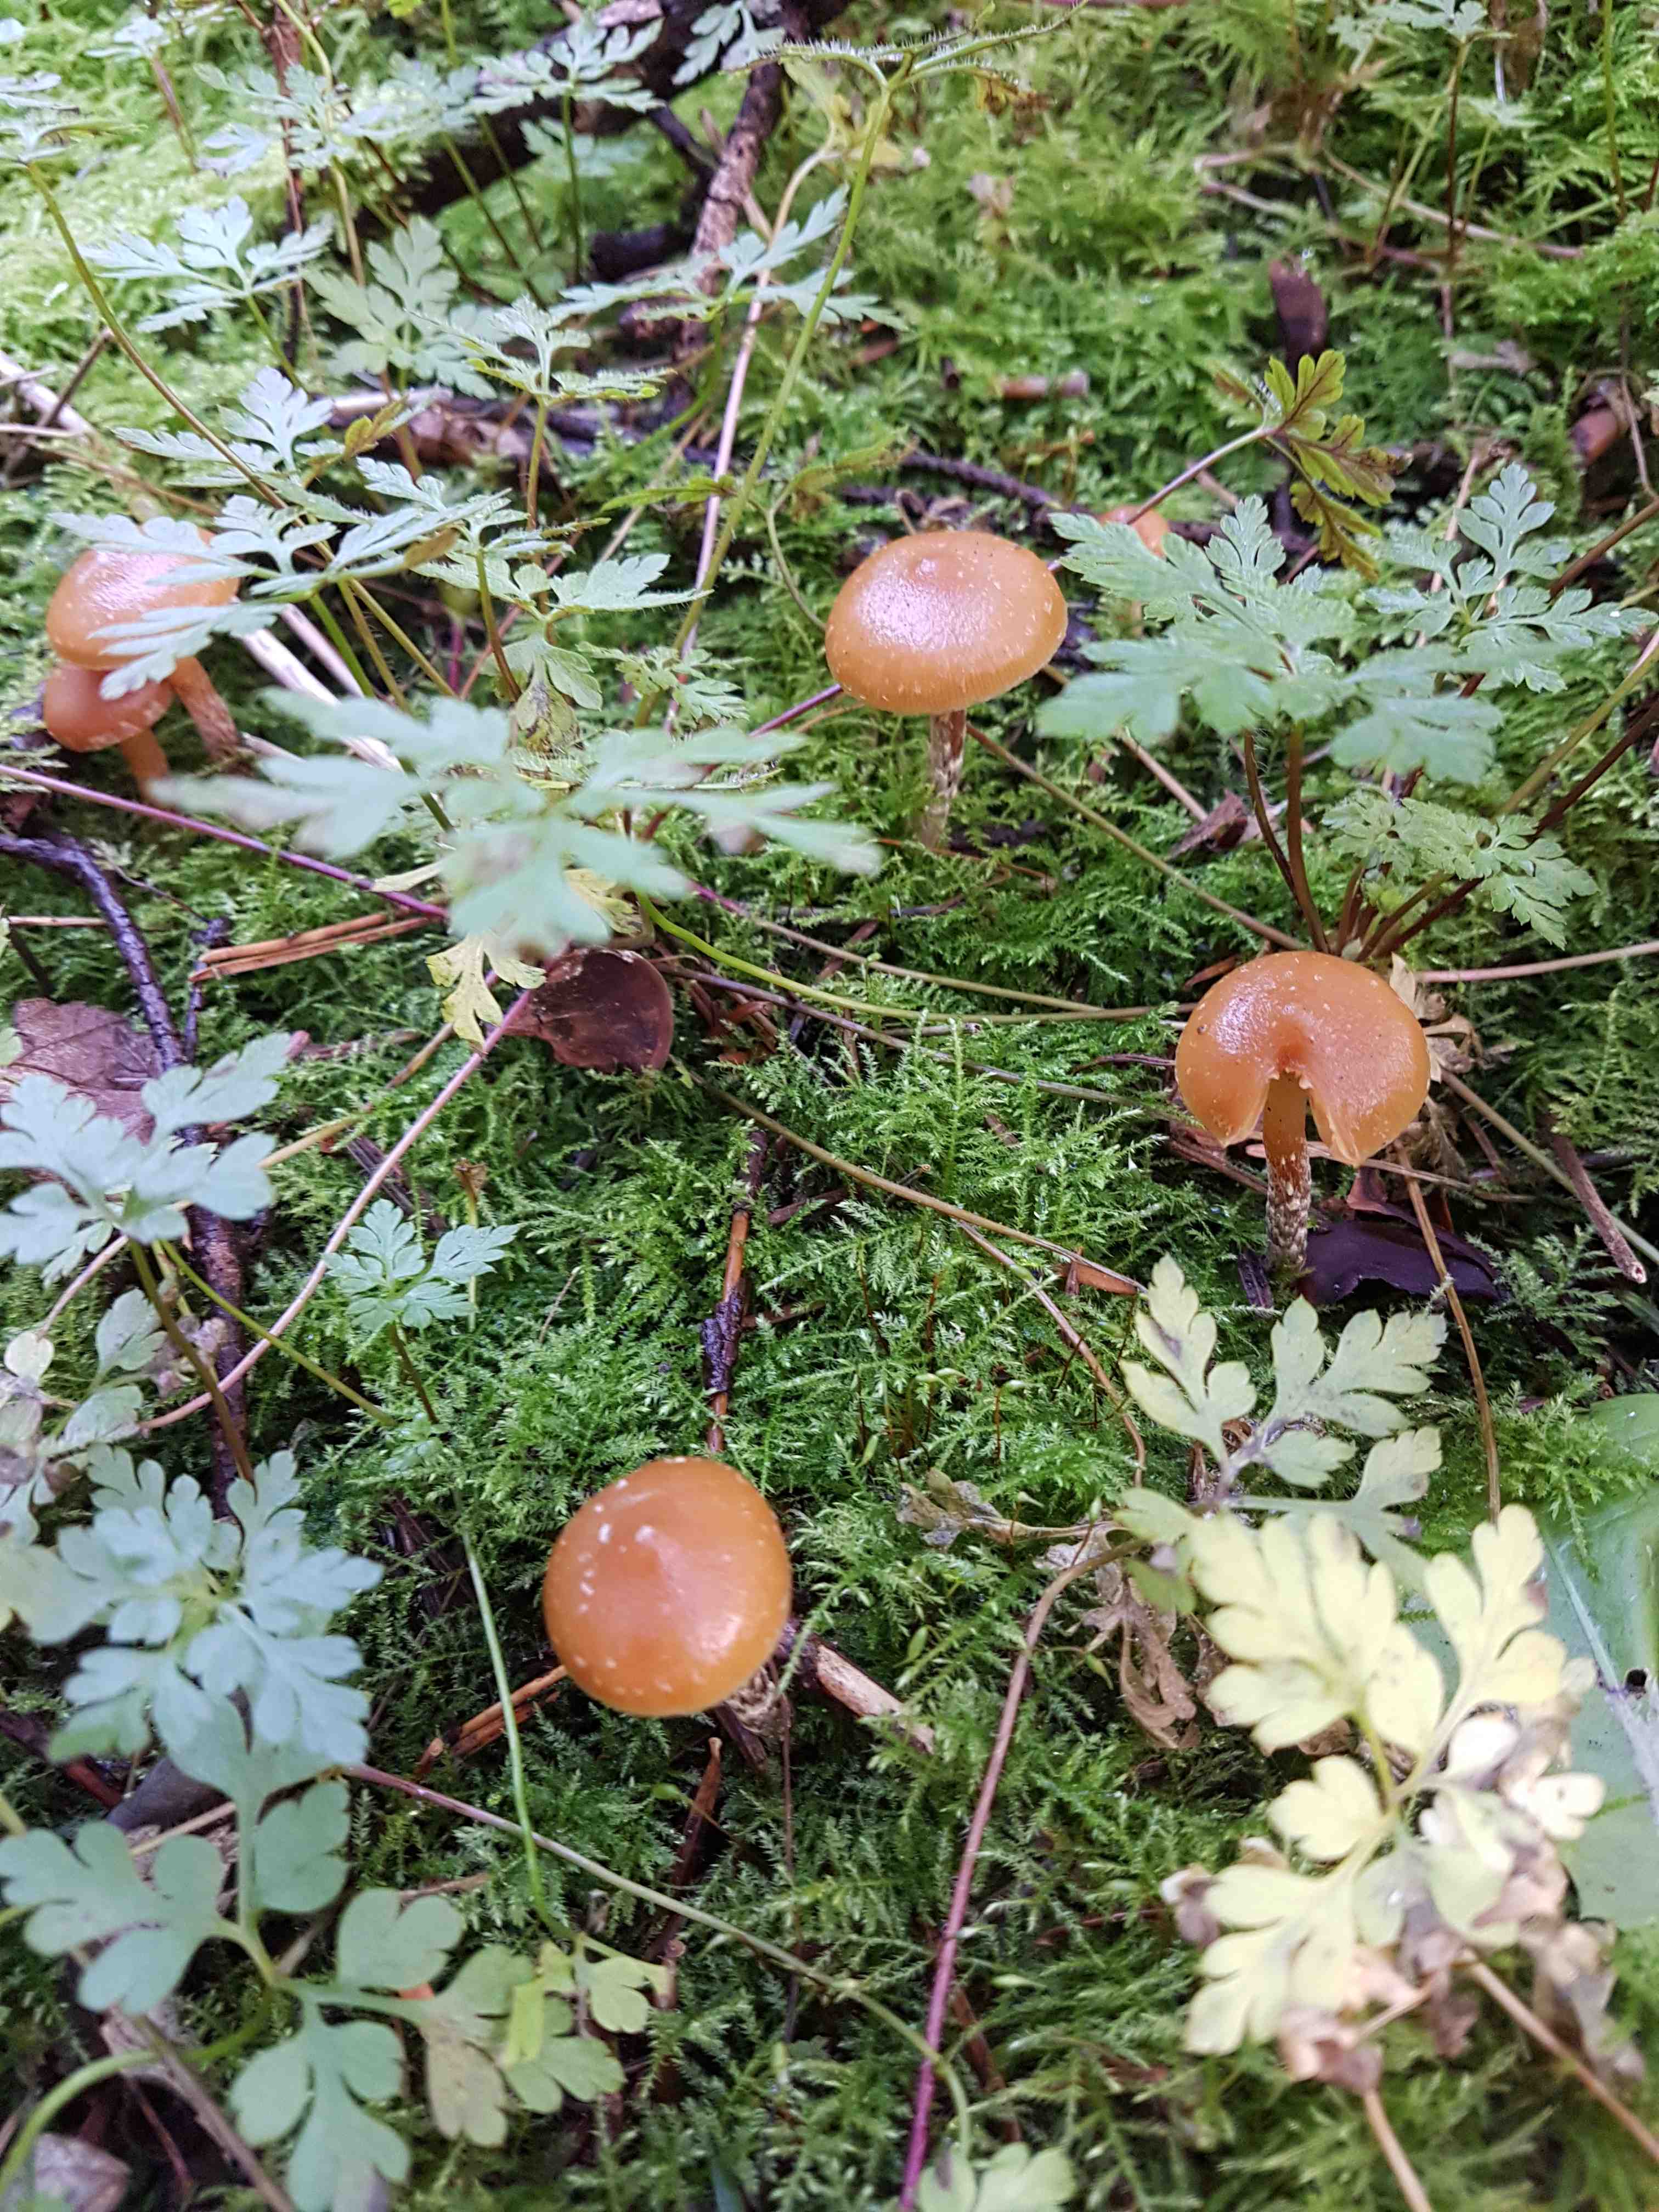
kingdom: Fungi
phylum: Basidiomycota
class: Agaricomycetes
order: Agaricales
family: Hymenogastraceae
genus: Galerina
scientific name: Galerina sideroides
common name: træflis-hjelmhat
